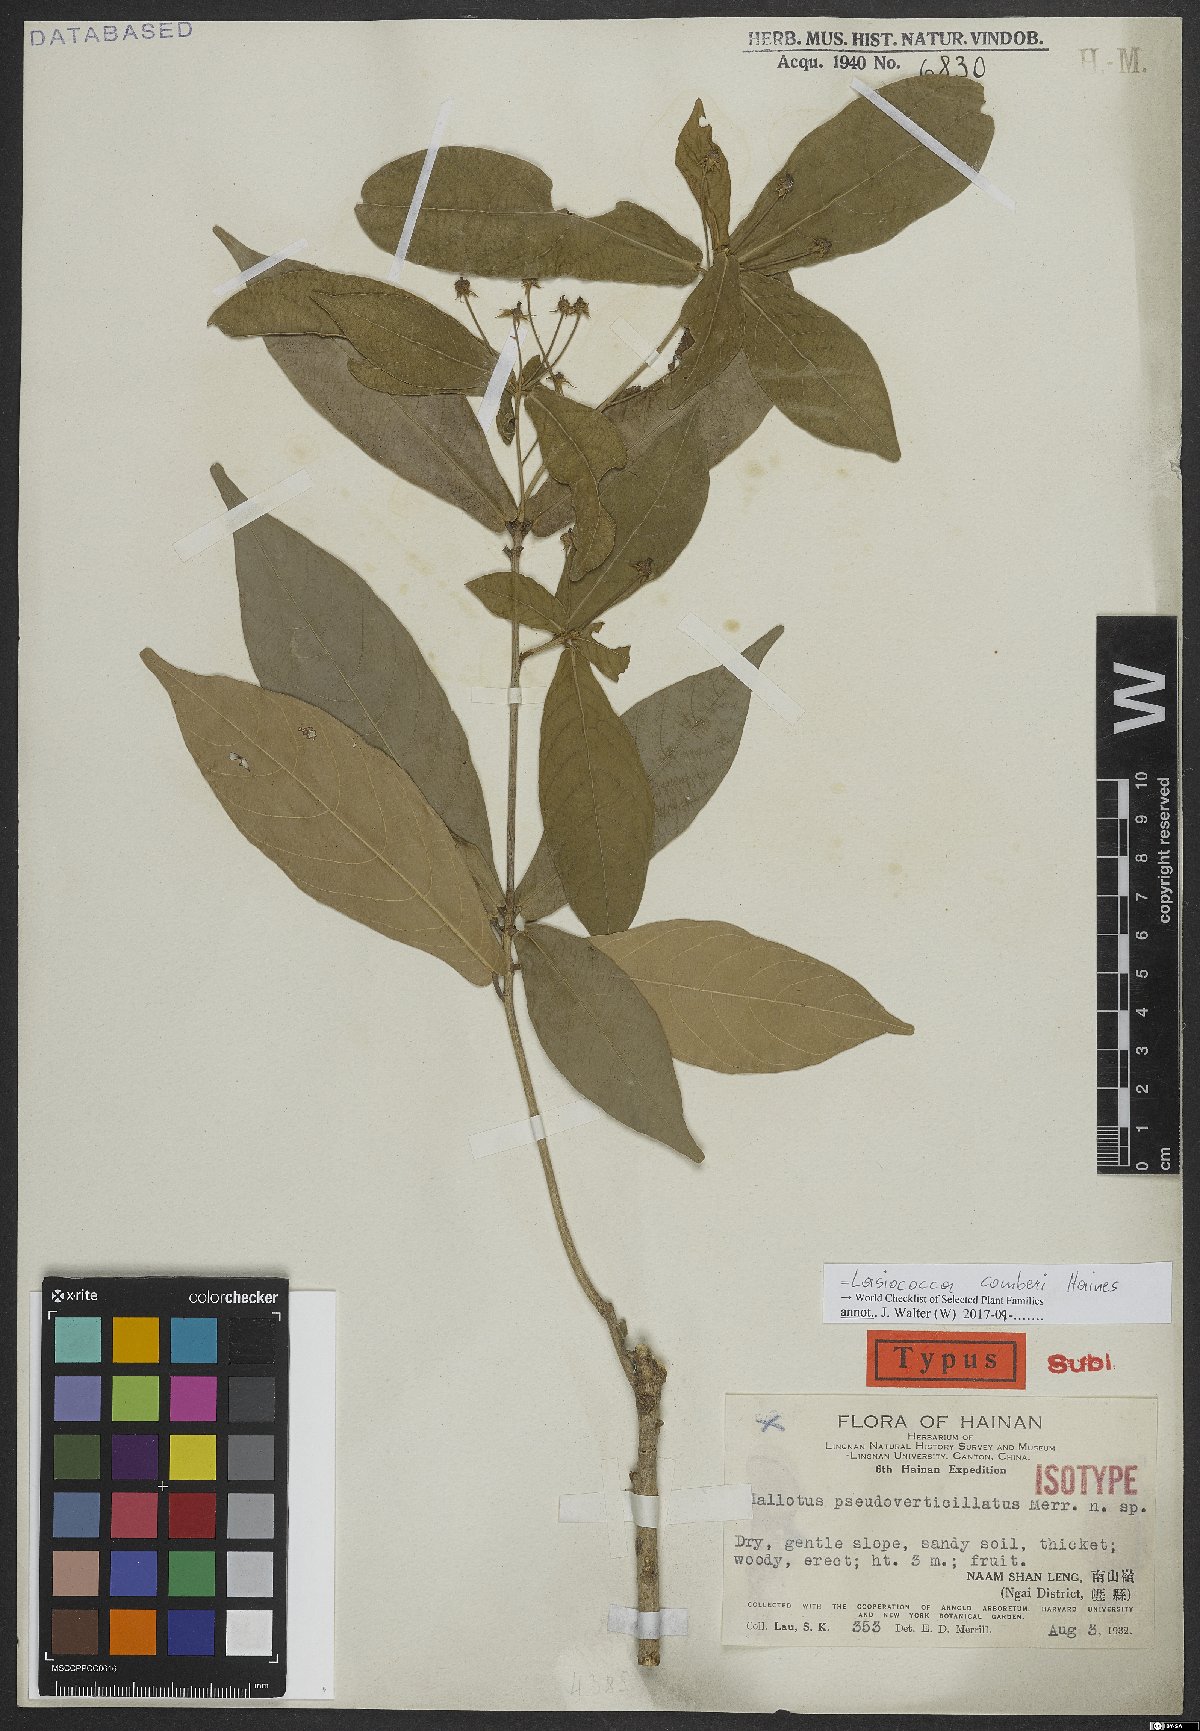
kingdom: Plantae
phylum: Tracheophyta
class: Magnoliopsida
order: Malpighiales
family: Euphorbiaceae
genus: Lasiococca
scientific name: Lasiococca comberi
